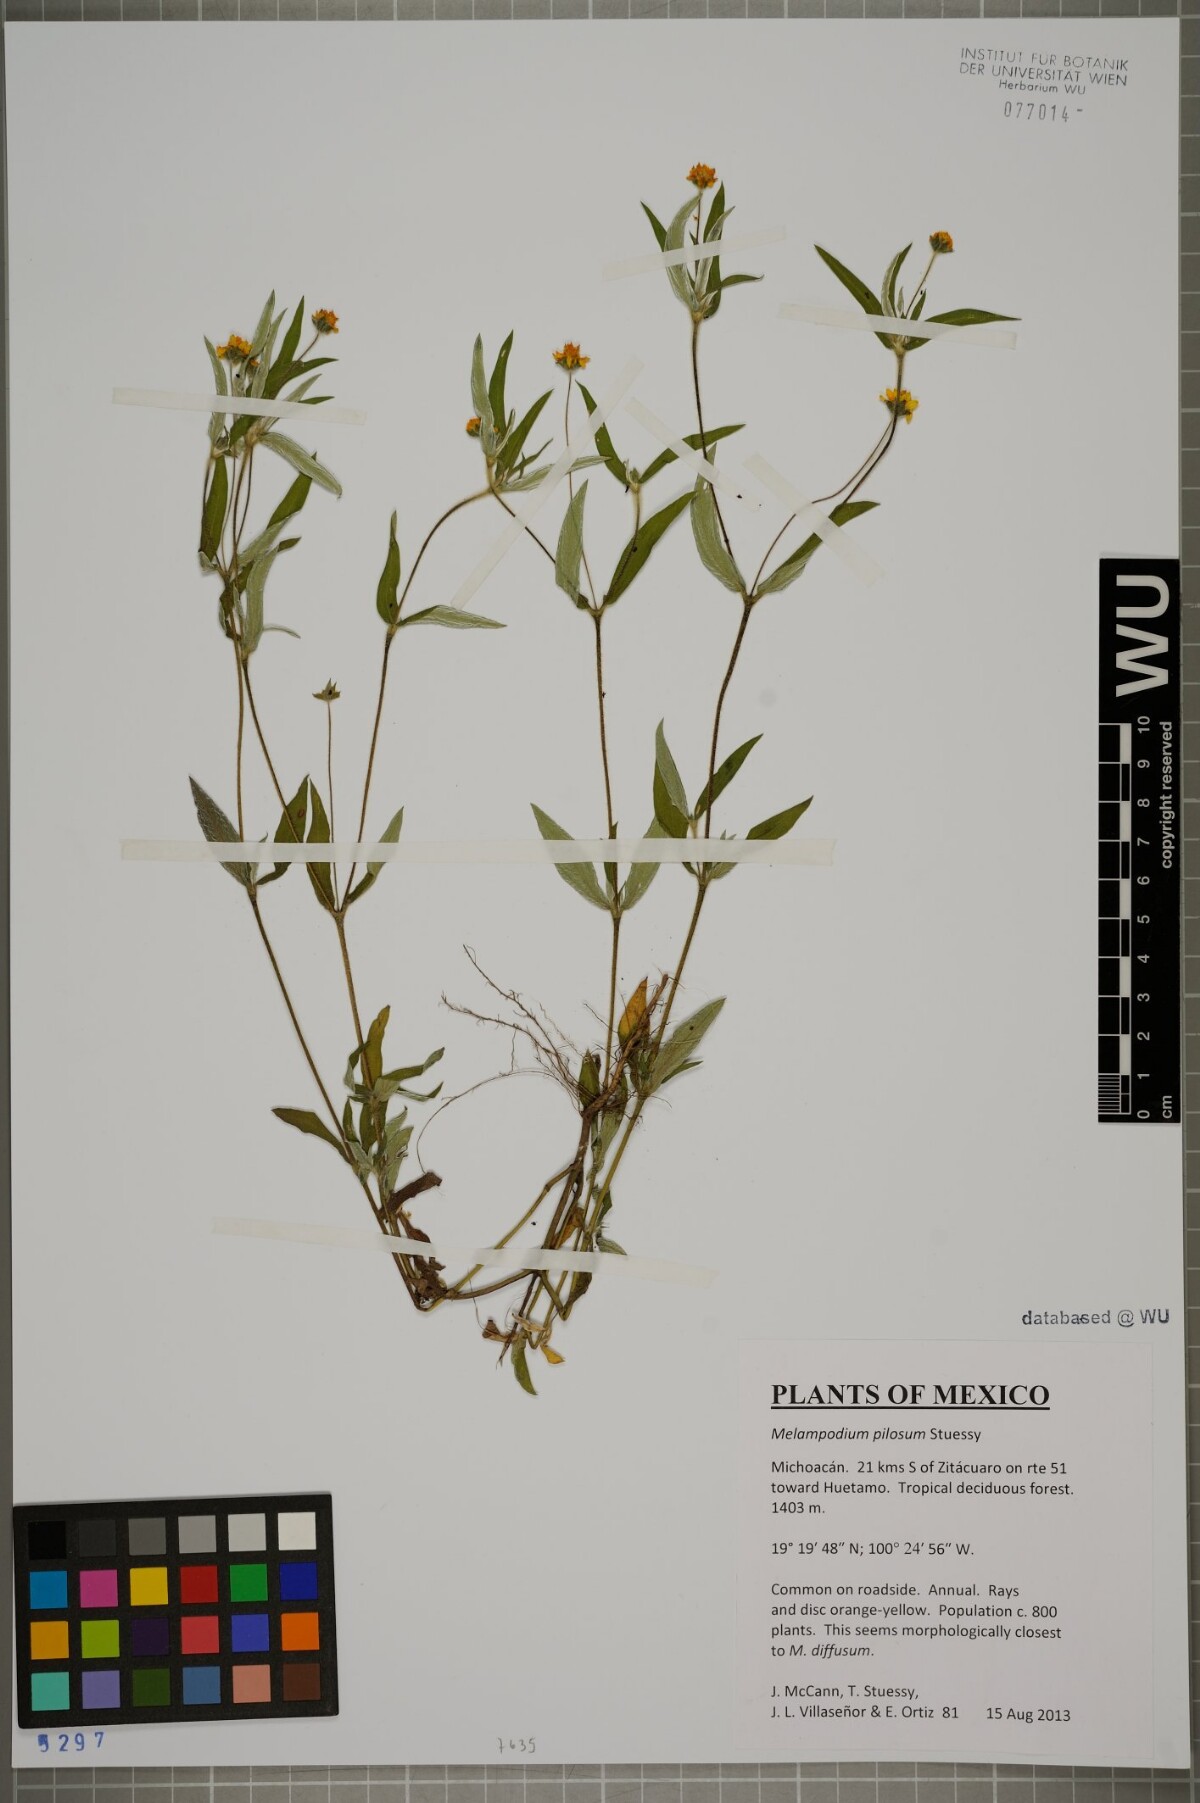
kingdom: Plantae
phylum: Tracheophyta
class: Magnoliopsida
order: Asterales
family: Asteraceae
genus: Melampodium
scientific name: Melampodium pilosum
